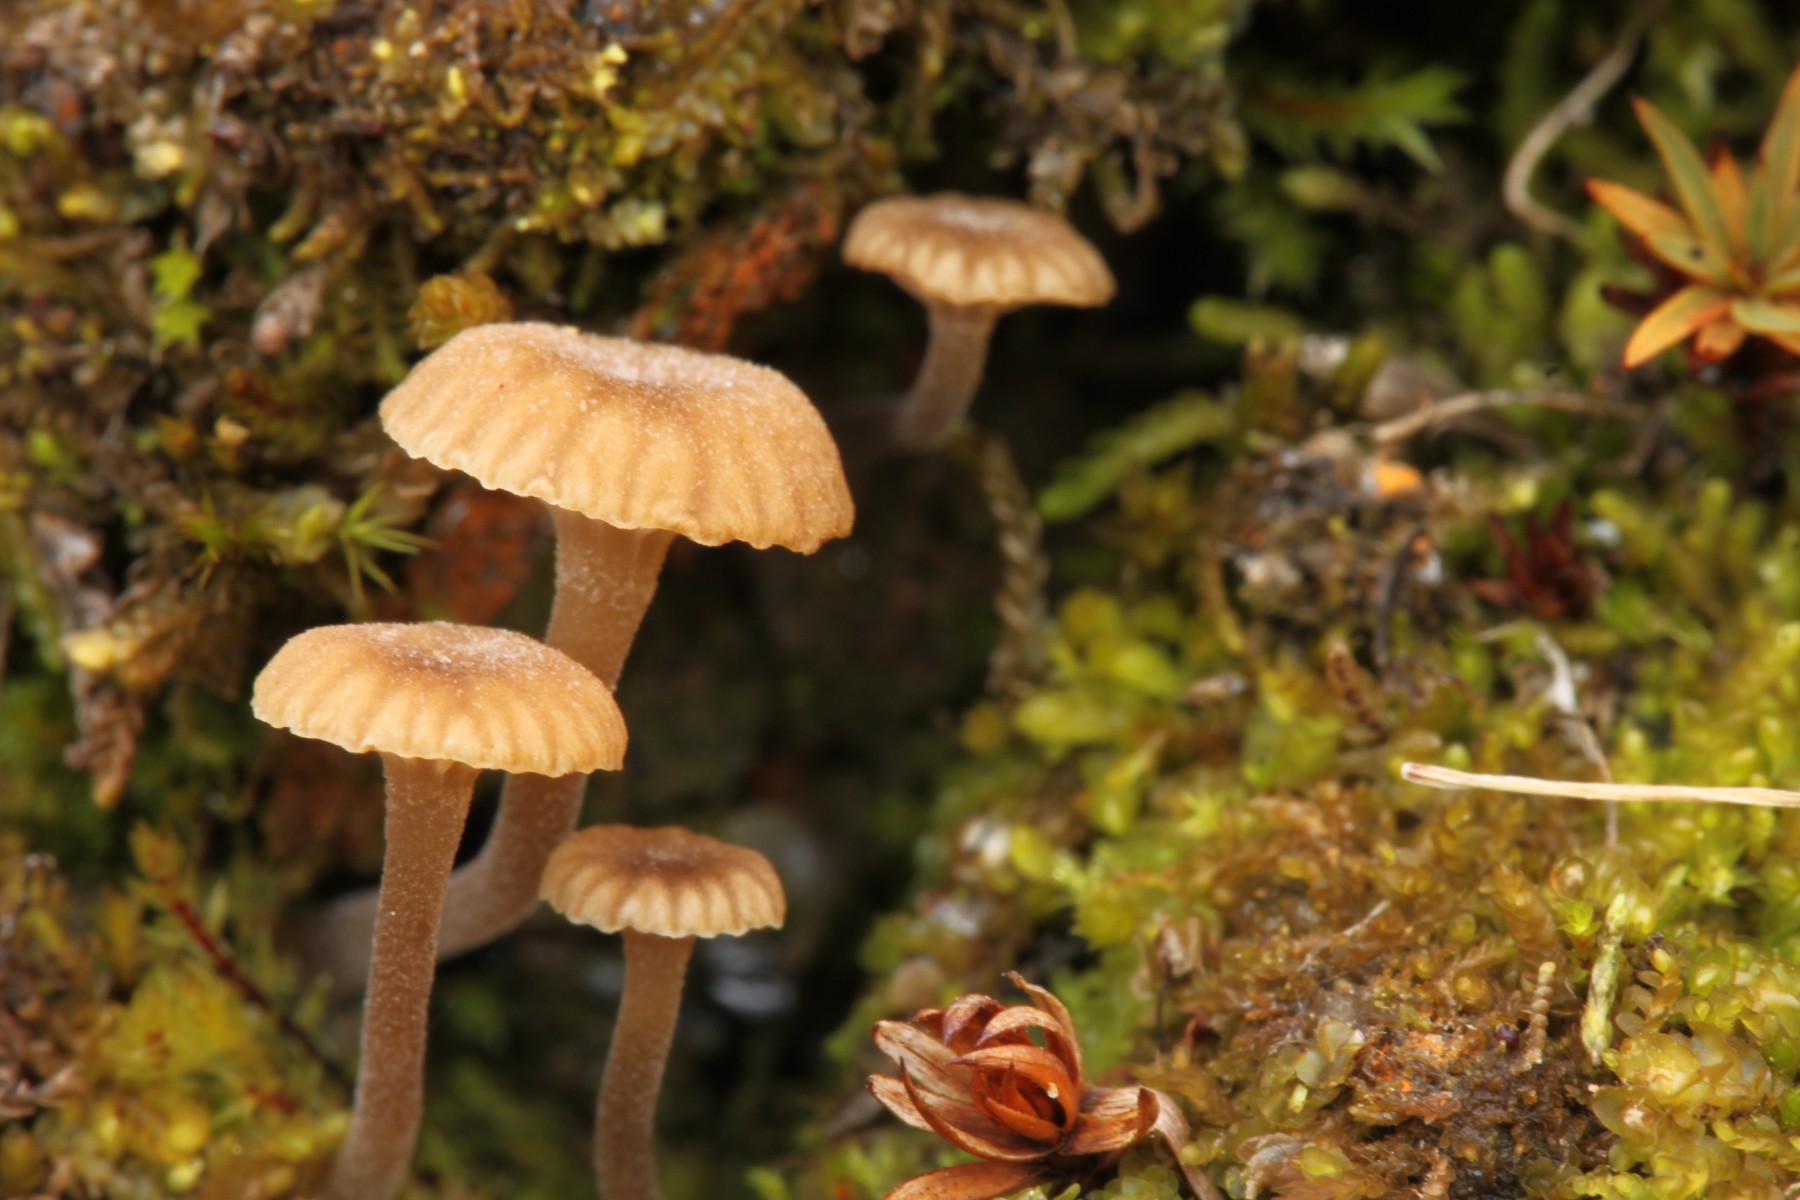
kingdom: Fungi
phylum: Basidiomycota
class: Agaricomycetes
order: Agaricales
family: Hygrophoraceae
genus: Lichenomphalia
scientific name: Lichenomphalia velutina
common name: dunet lavhat
